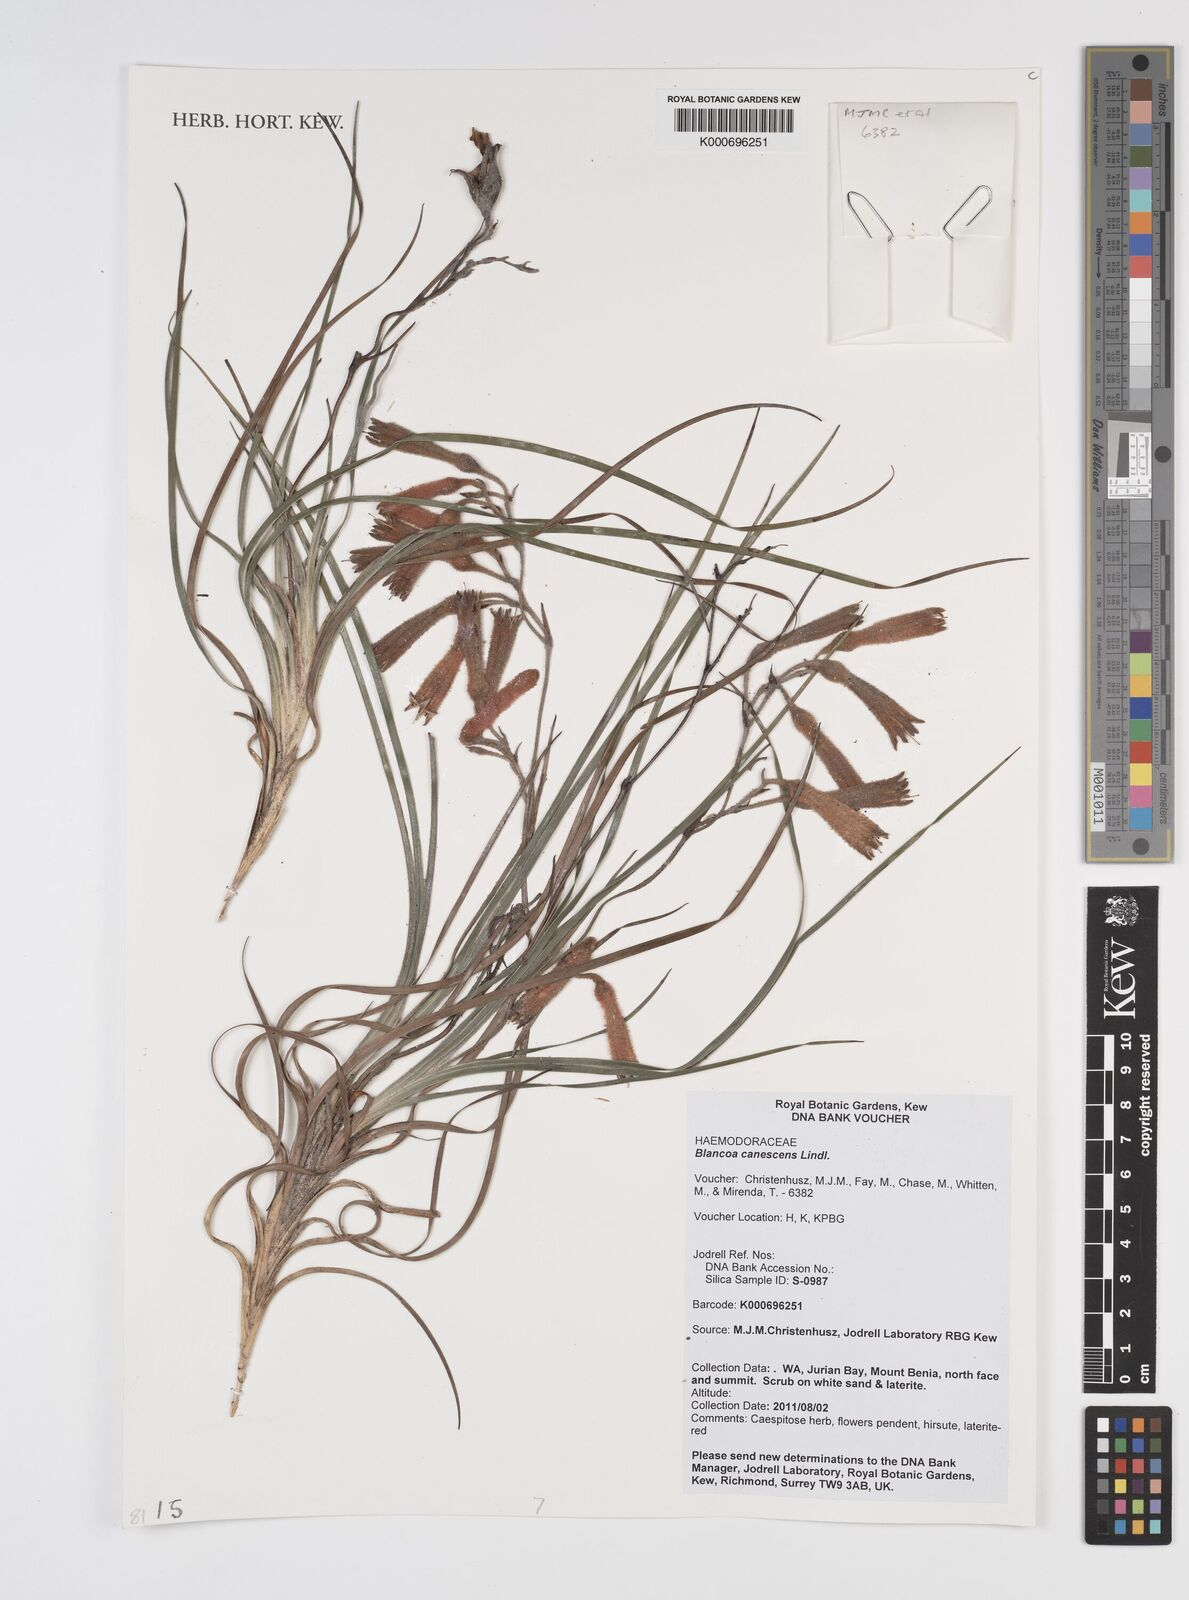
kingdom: Plantae
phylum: Tracheophyta
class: Liliopsida
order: Commelinales
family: Haemodoraceae
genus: Blancoa
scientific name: Blancoa canescens
